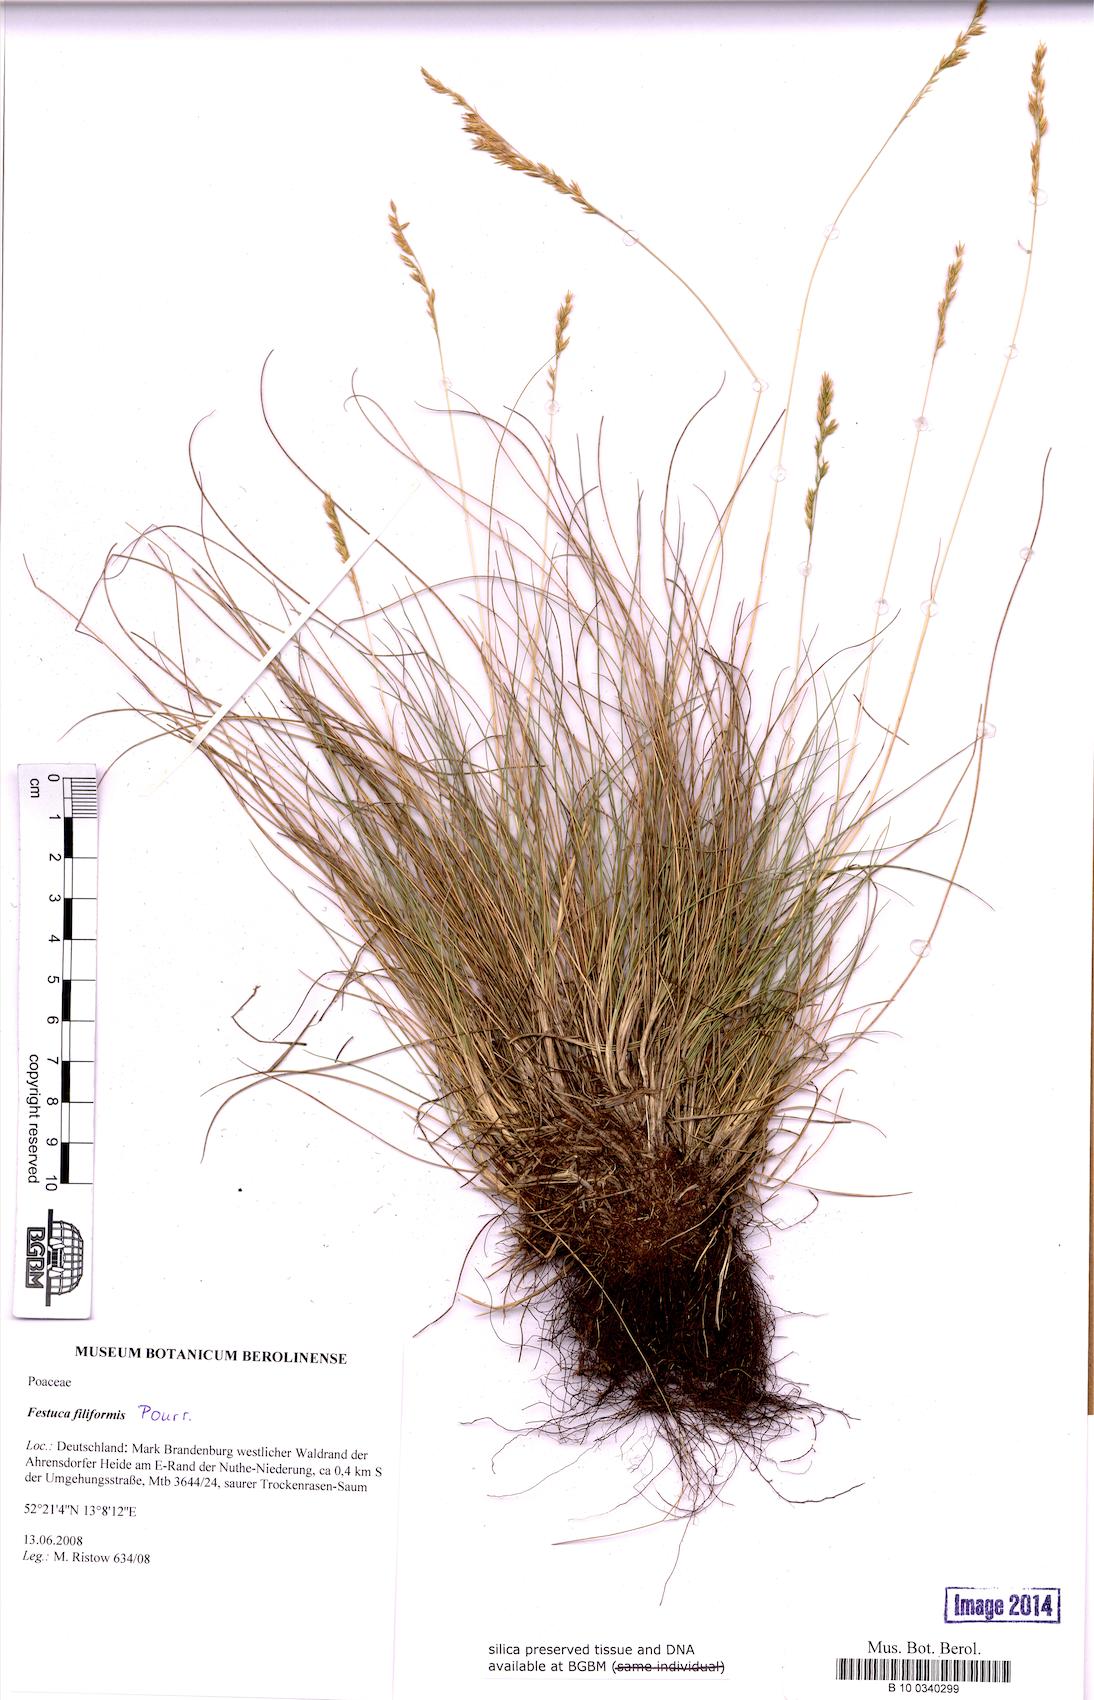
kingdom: Plantae
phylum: Tracheophyta
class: Liliopsida
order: Poales
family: Poaceae
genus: Leptochloa
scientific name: Leptochloa panicea
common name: Mucronate sprangletop
